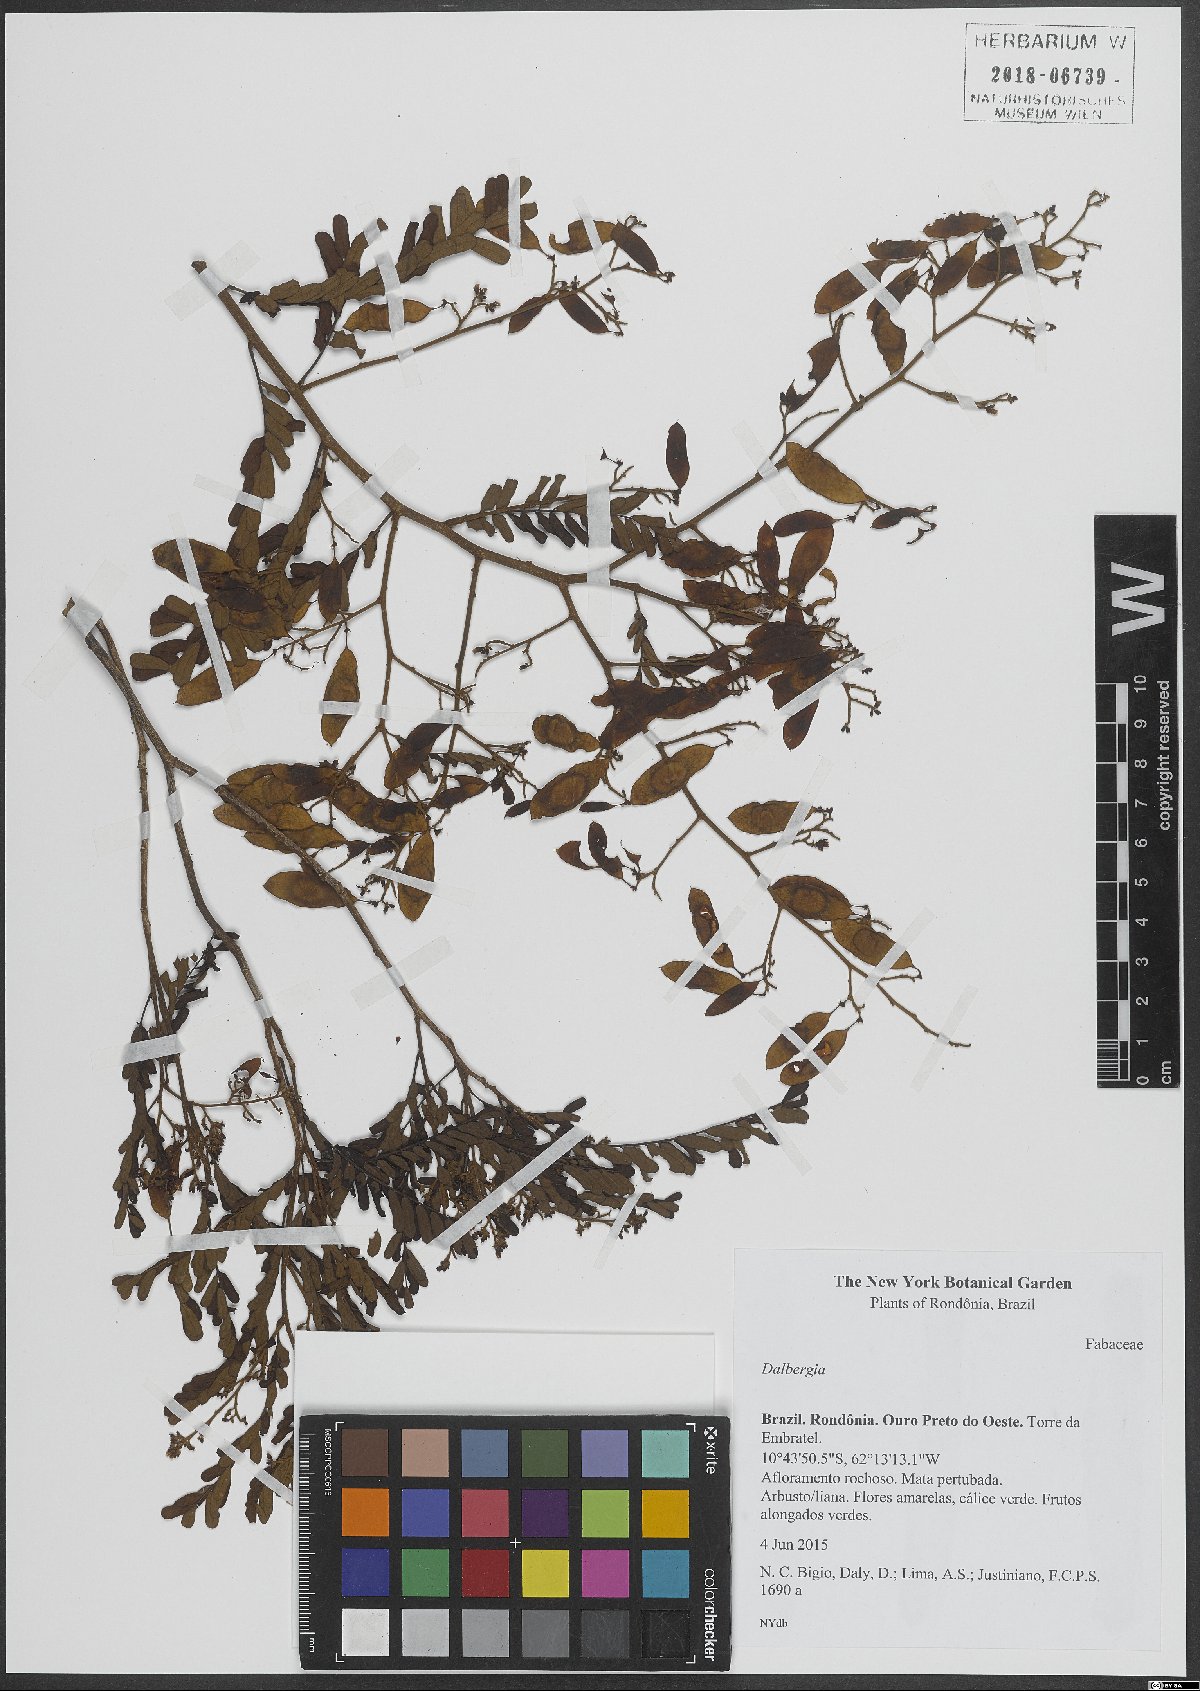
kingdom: Plantae
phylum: Tracheophyta
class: Magnoliopsida
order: Fabales
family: Fabaceae
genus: Dalbergia
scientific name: Dalbergia
